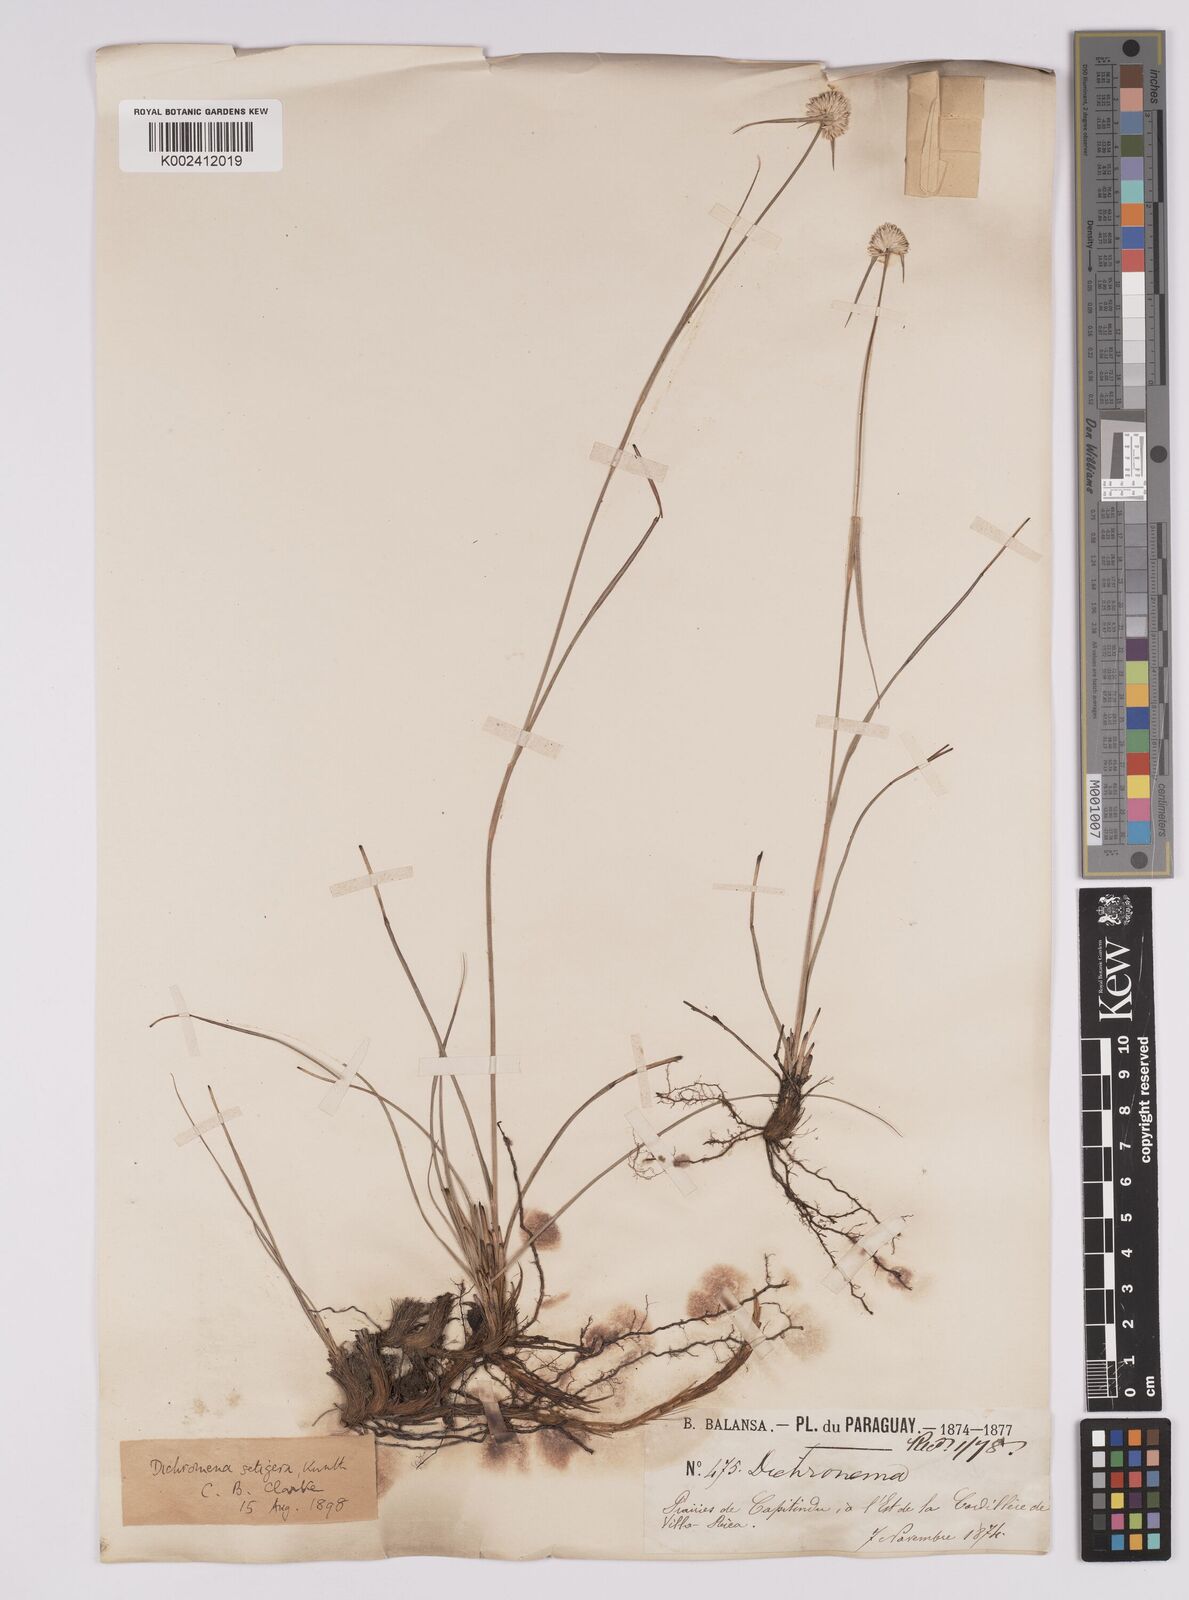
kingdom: Plantae
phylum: Tracheophyta
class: Liliopsida
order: Poales
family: Cyperaceae
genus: Rhynchospora
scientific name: Rhynchospora setigera
